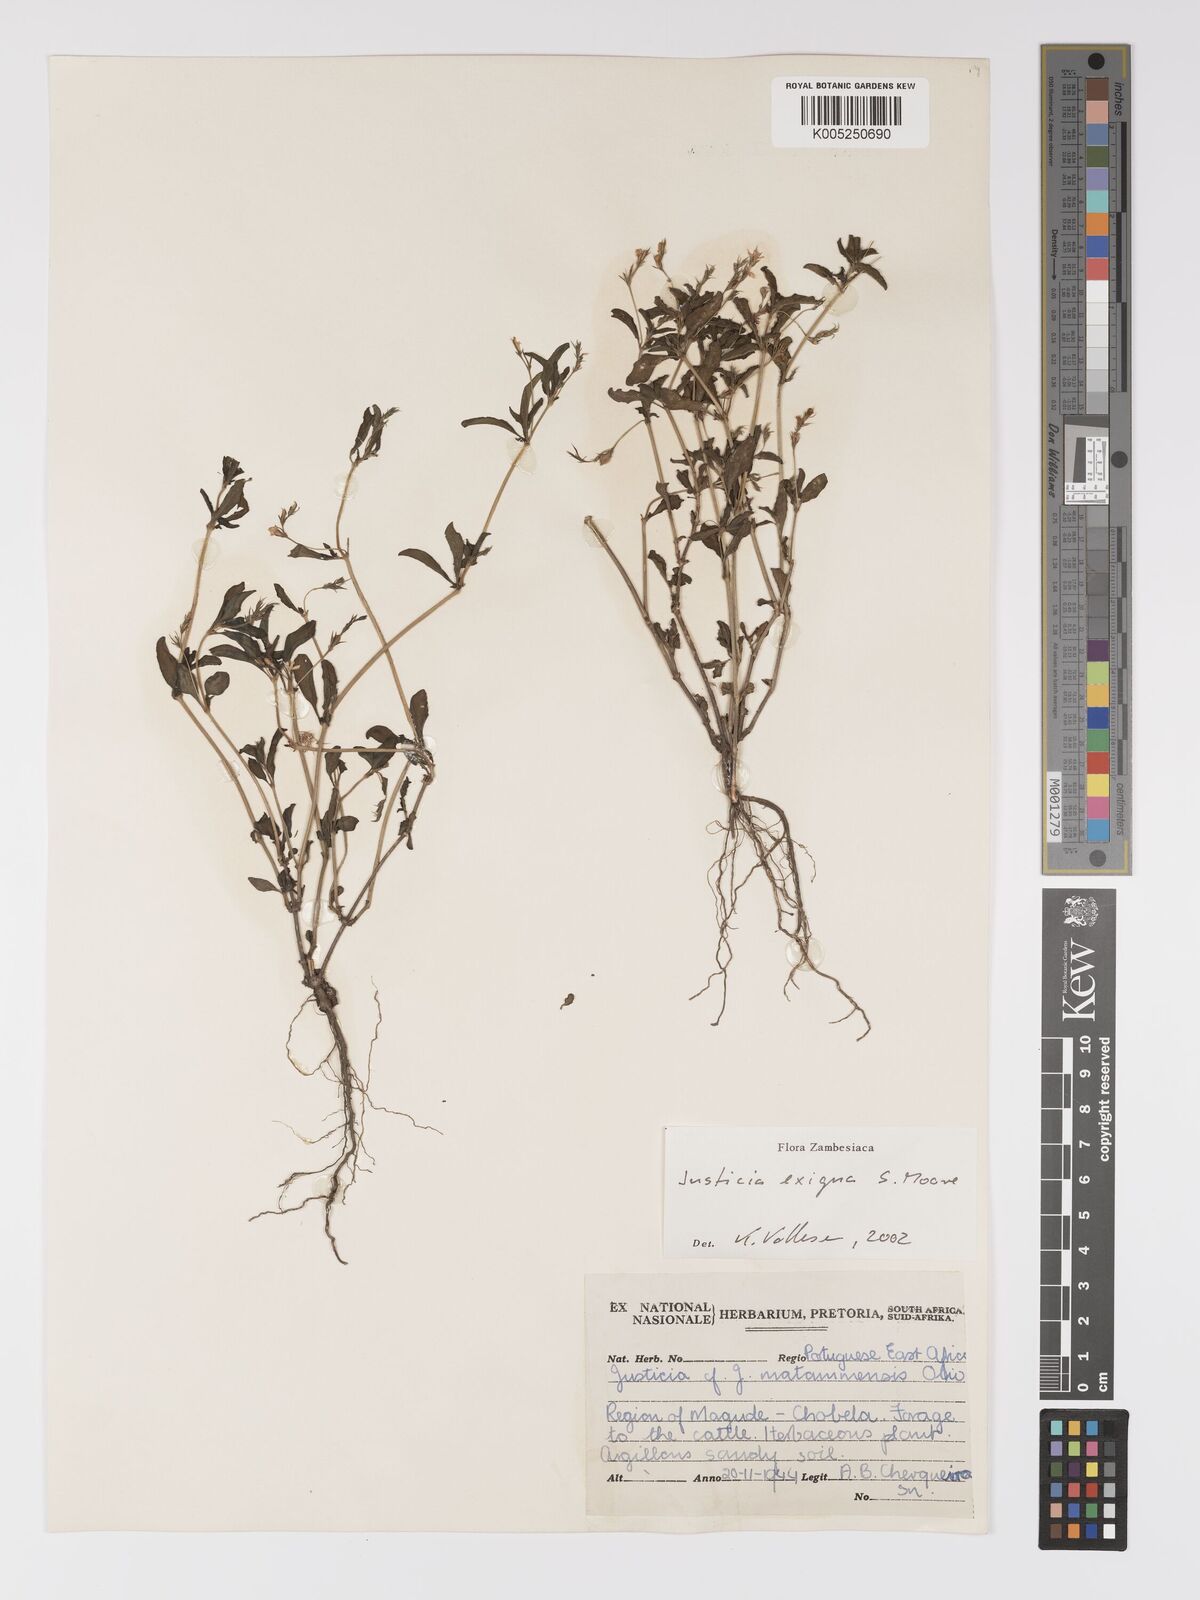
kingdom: Plantae
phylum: Tracheophyta
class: Magnoliopsida
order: Lamiales
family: Acanthaceae
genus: Justicia
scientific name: Justicia exigua
